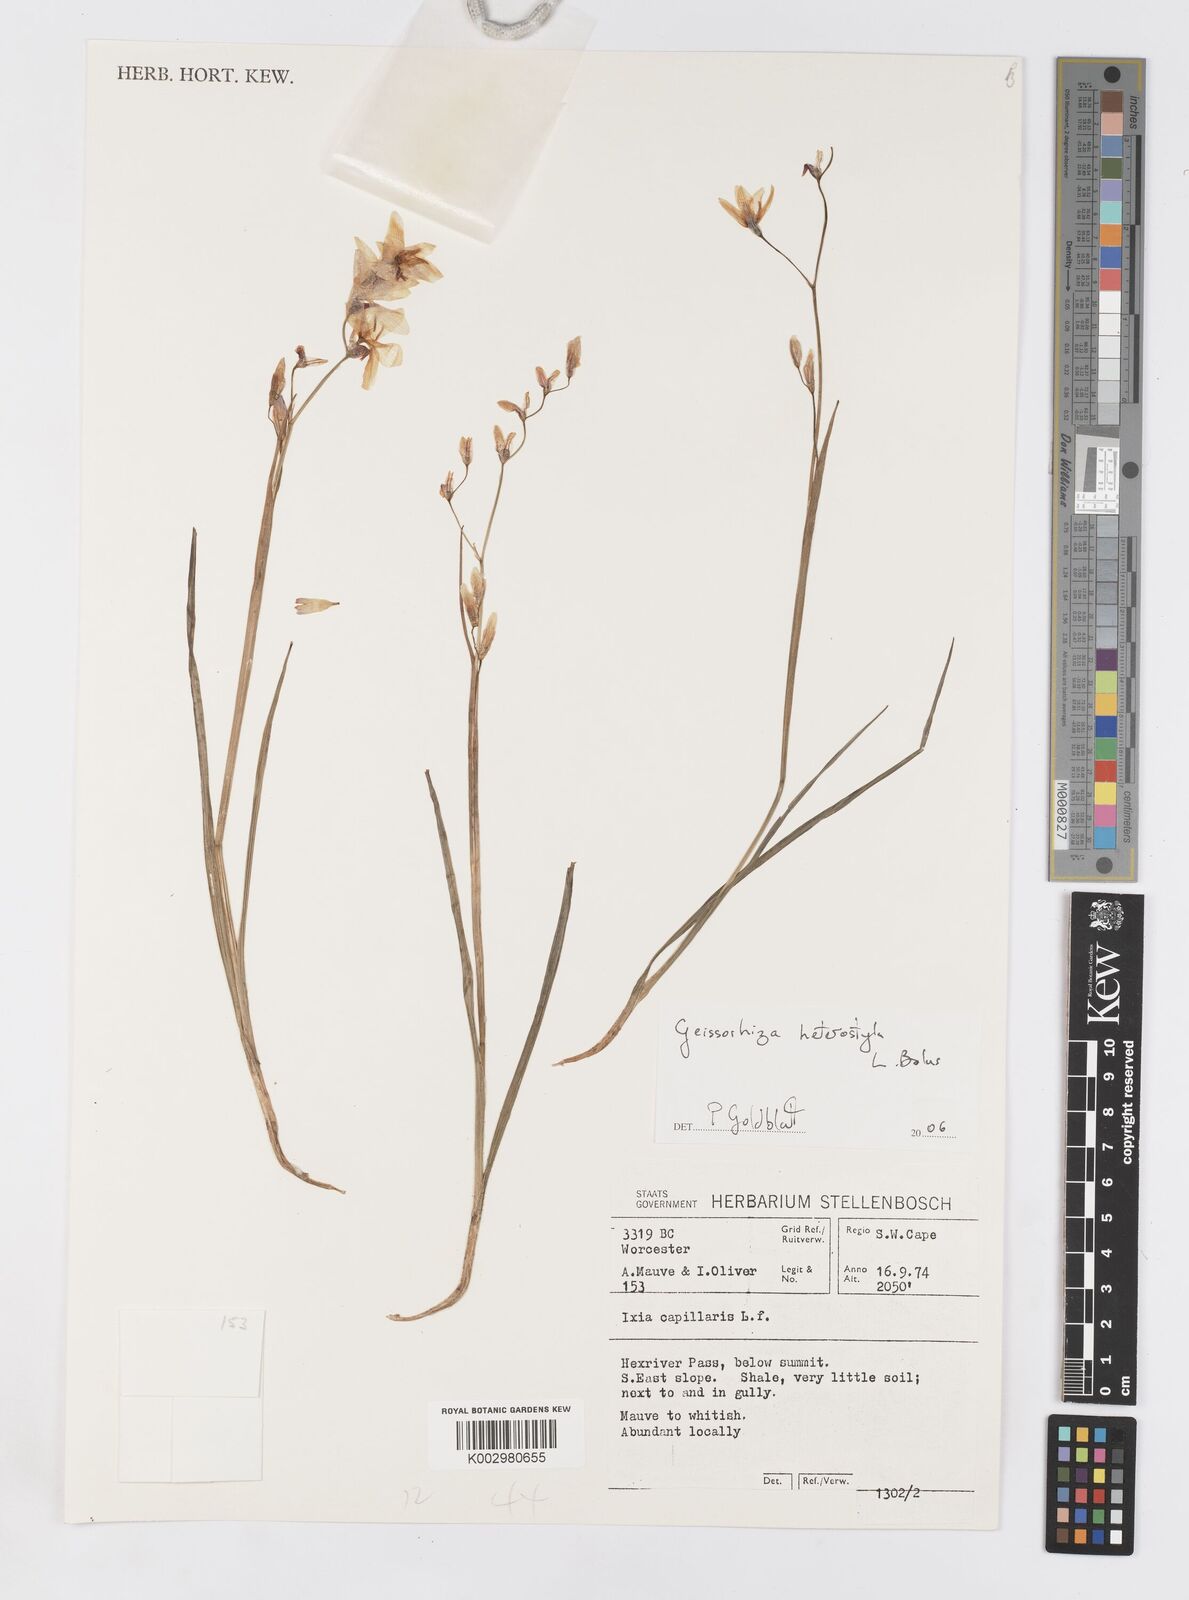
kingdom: Plantae
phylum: Tracheophyta
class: Liliopsida
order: Asparagales
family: Iridaceae
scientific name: Iridaceae
